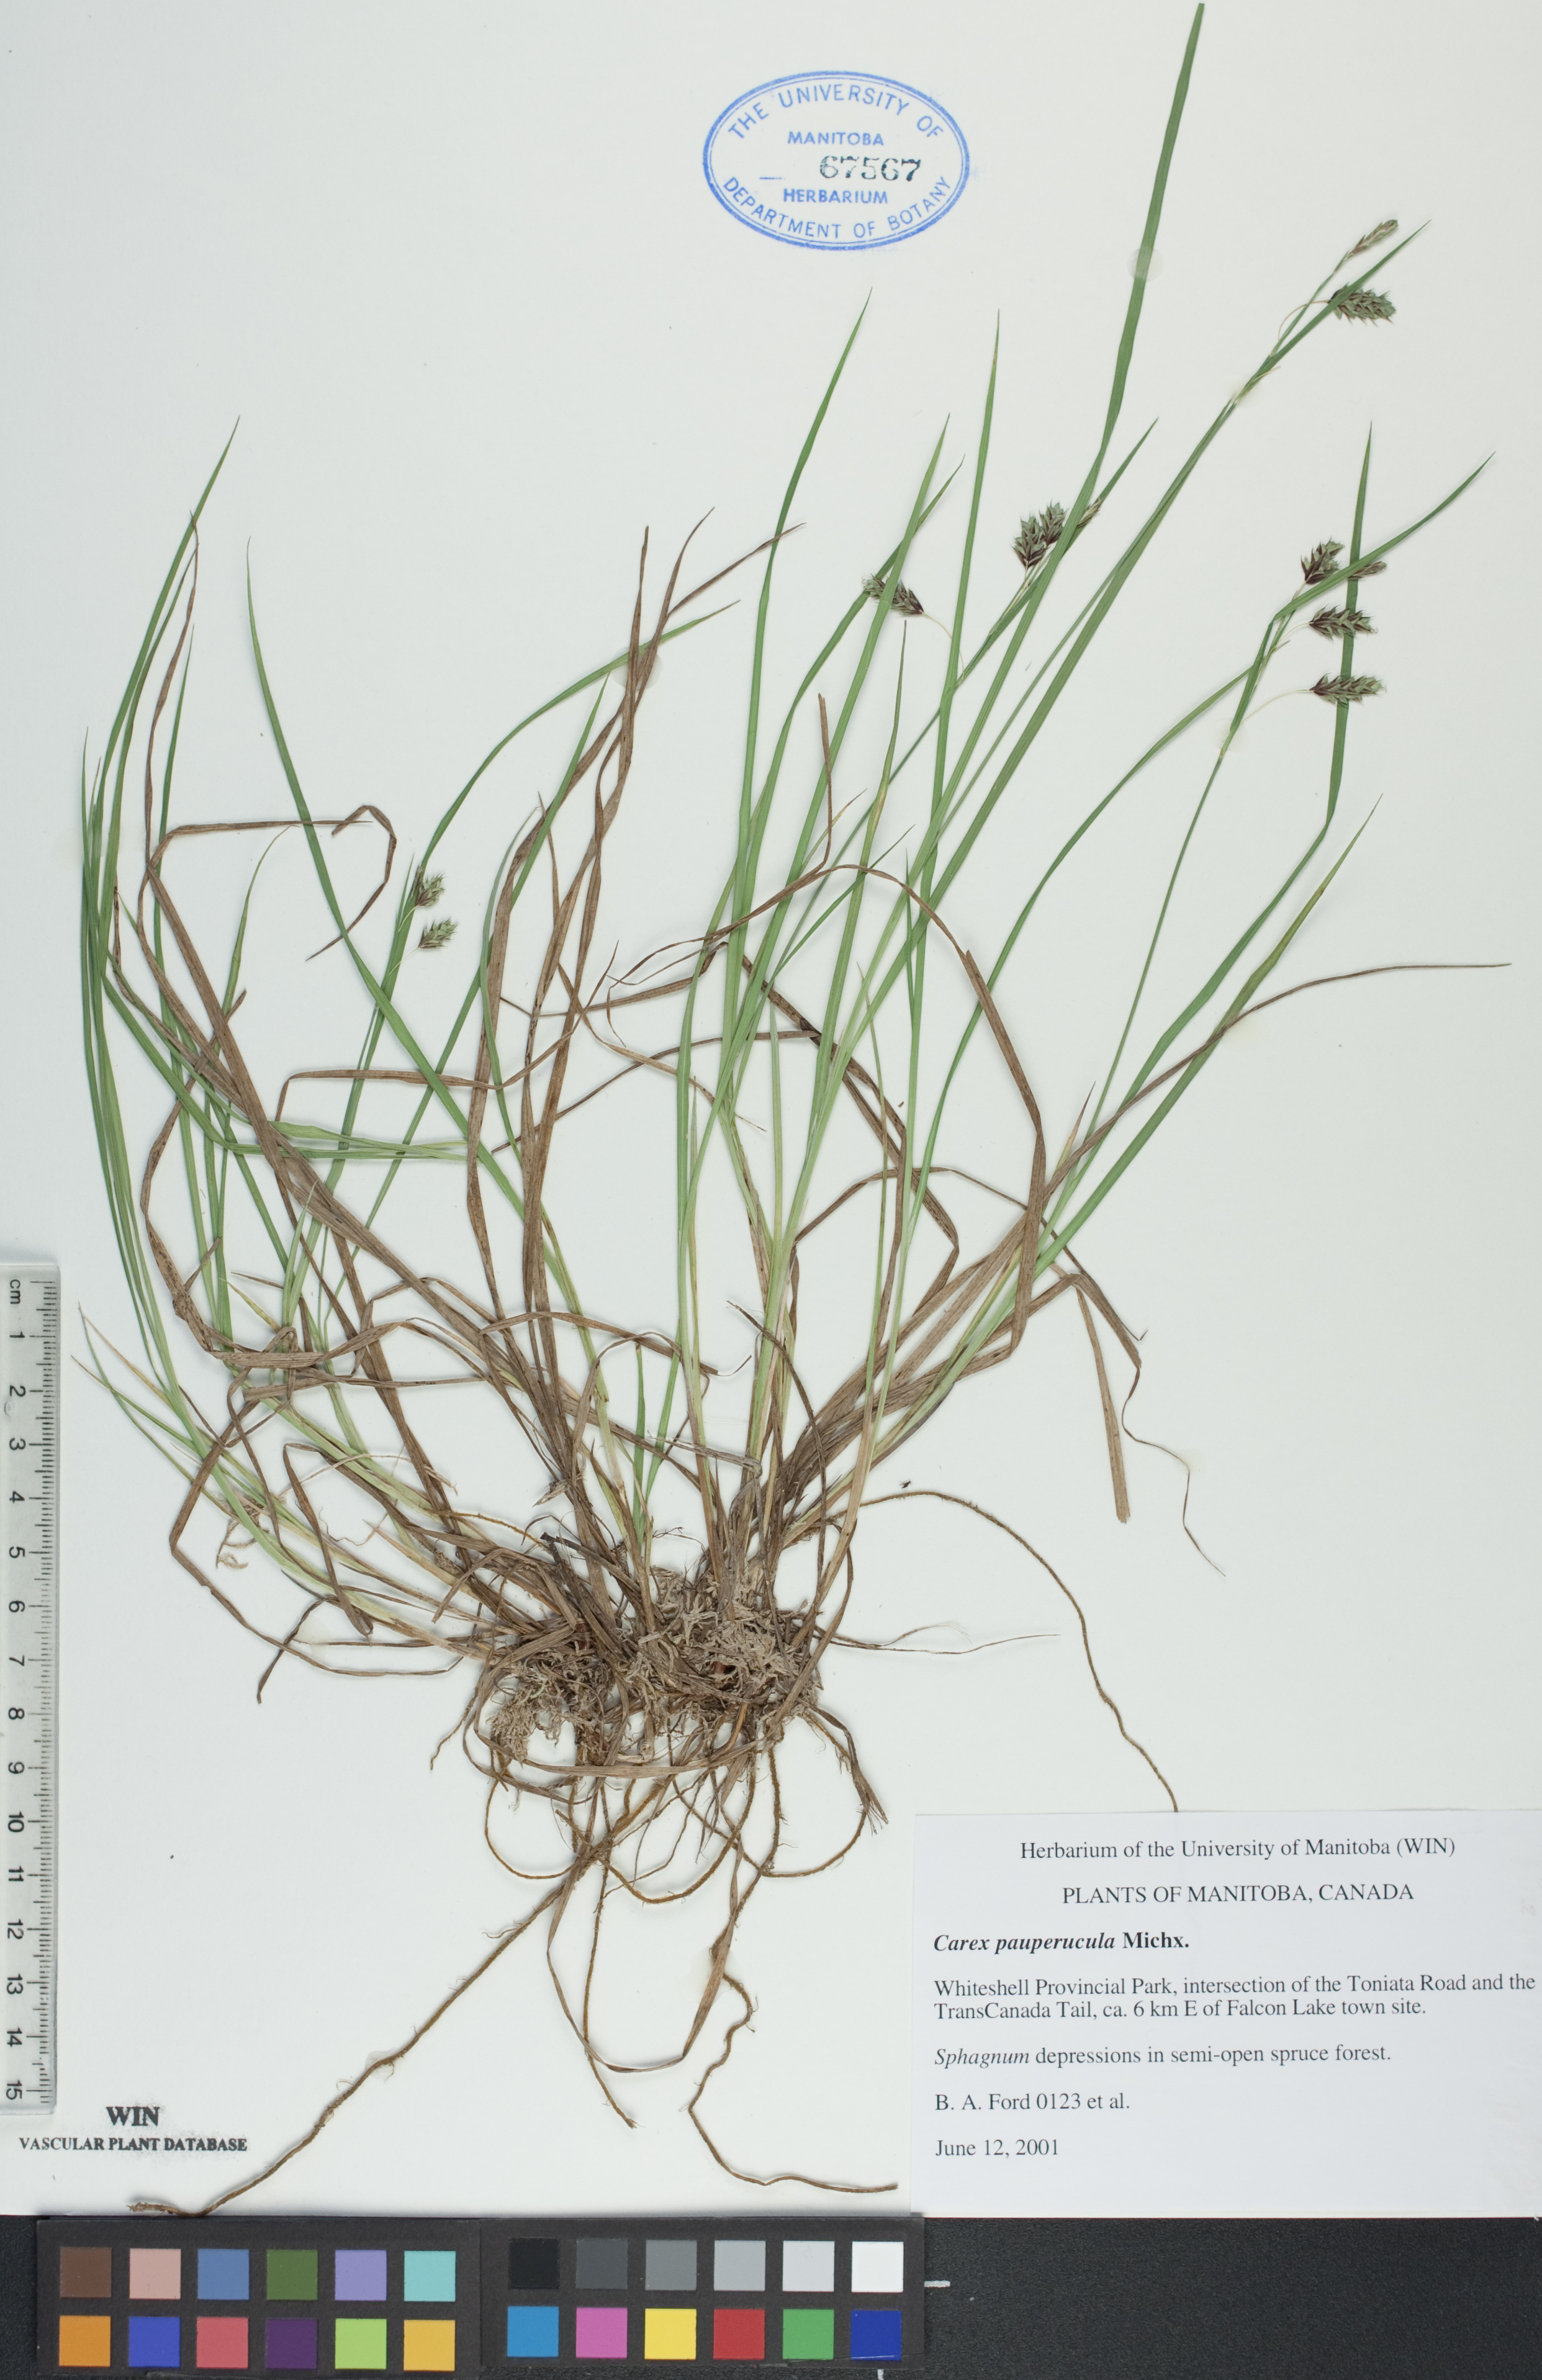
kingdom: Plantae
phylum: Tracheophyta
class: Liliopsida
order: Poales
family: Cyperaceae
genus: Carex
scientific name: Carex magellanica
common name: Bog sedge
